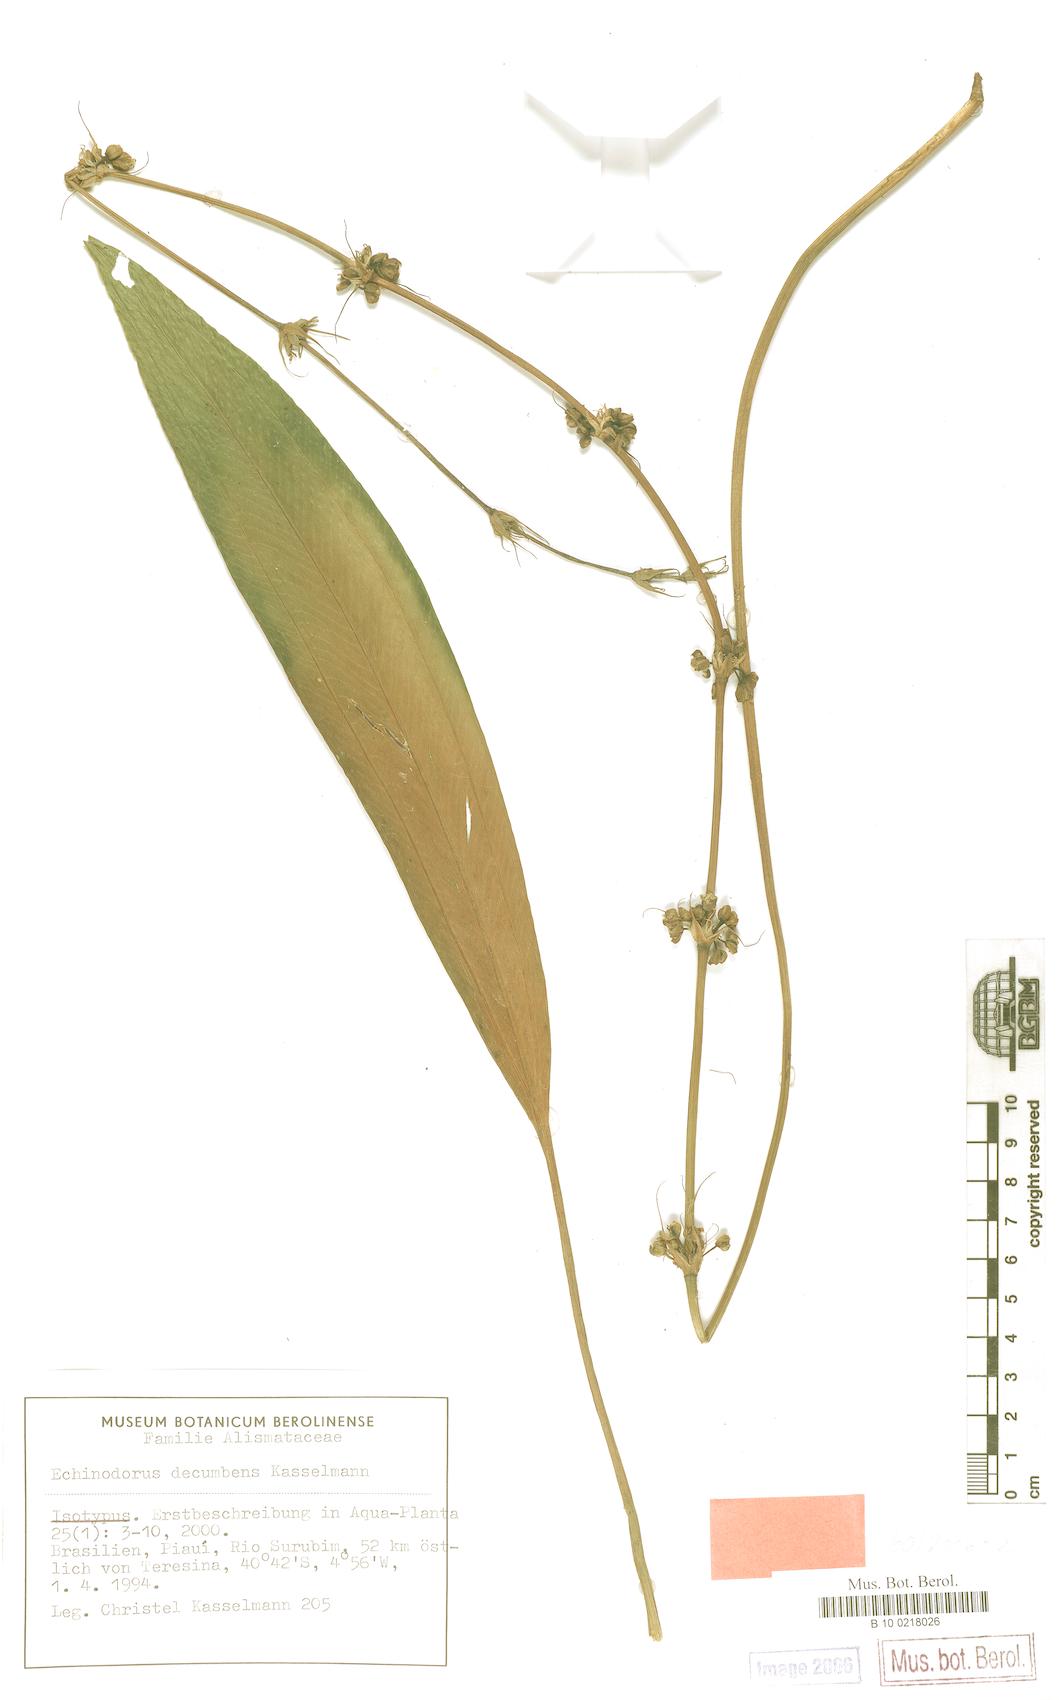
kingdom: Plantae
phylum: Tracheophyta
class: Liliopsida
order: Alismatales
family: Alismataceae
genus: Aquarius
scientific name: Aquarius decumbens
